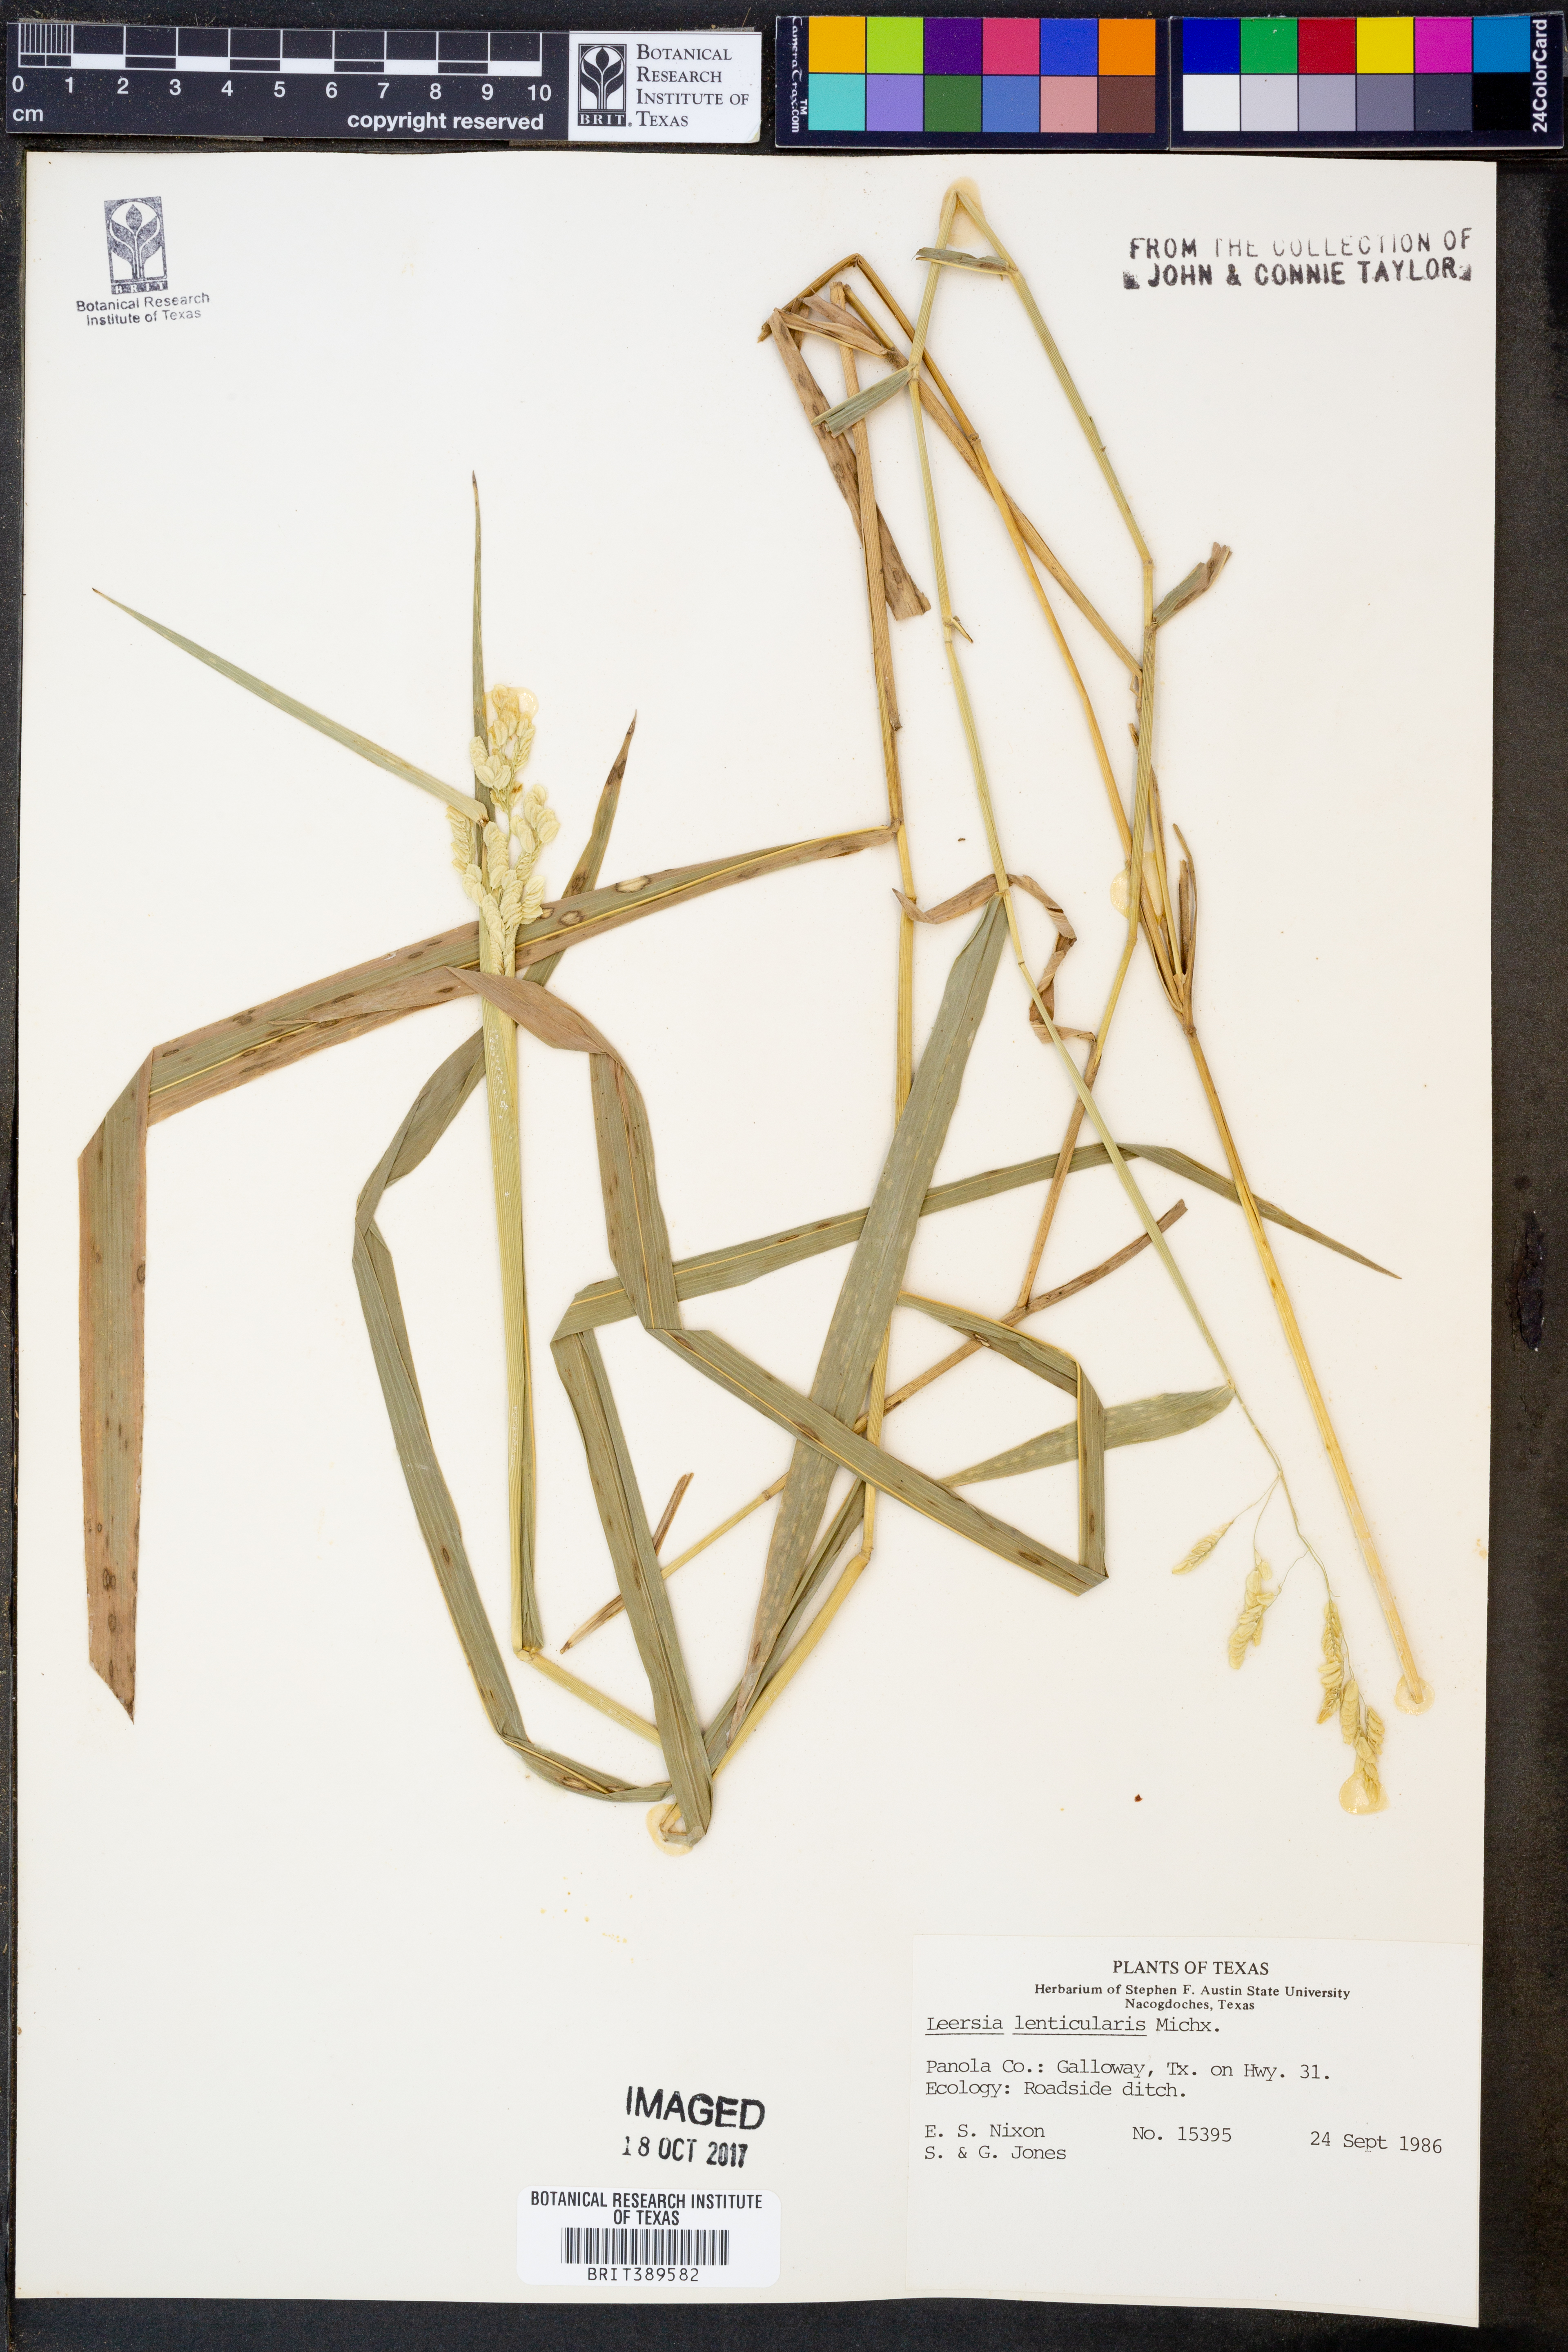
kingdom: Plantae
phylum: Tracheophyta
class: Liliopsida
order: Poales
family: Poaceae
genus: Leersia
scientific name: Leersia lenticularis
